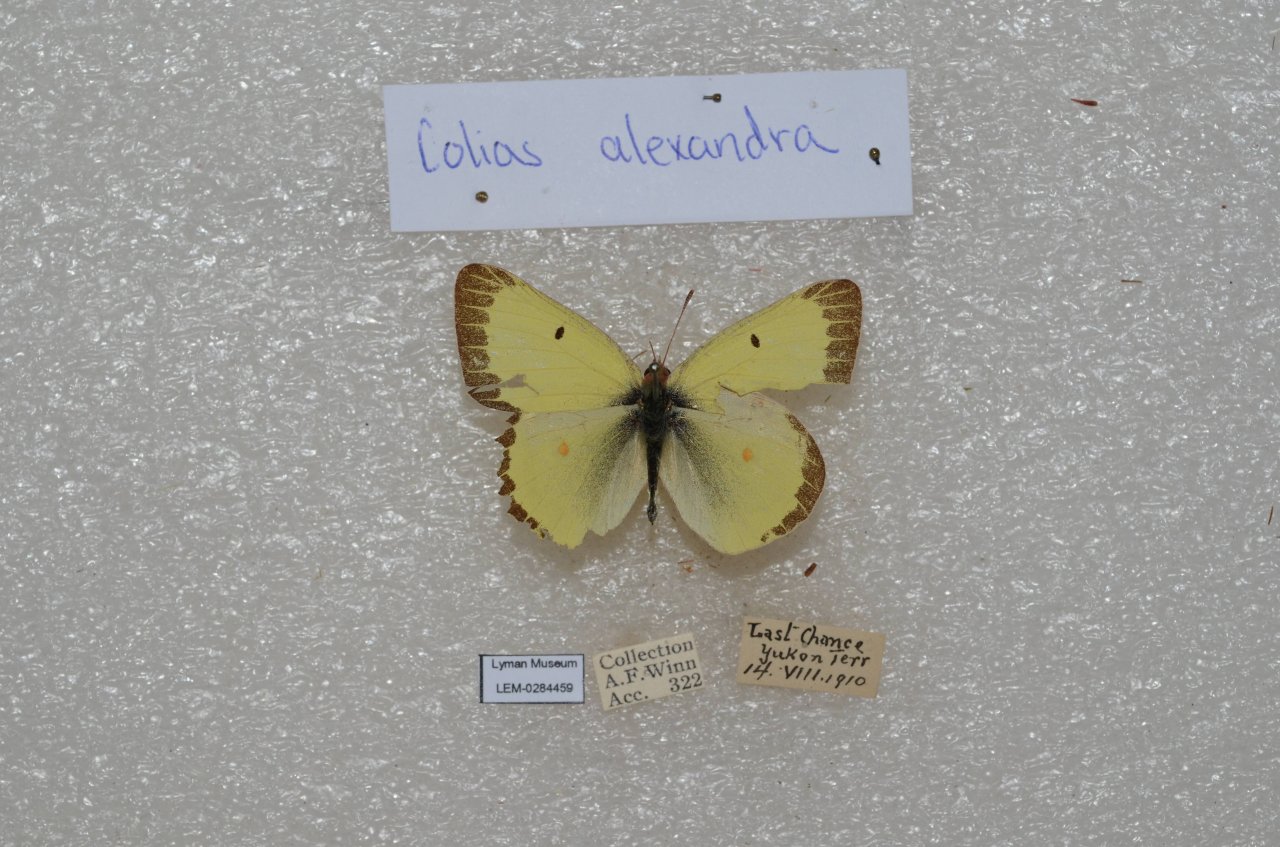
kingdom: Animalia
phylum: Arthropoda
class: Insecta
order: Lepidoptera
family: Pieridae
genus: Colias
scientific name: Colias gigantea
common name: Giant Sulphur
